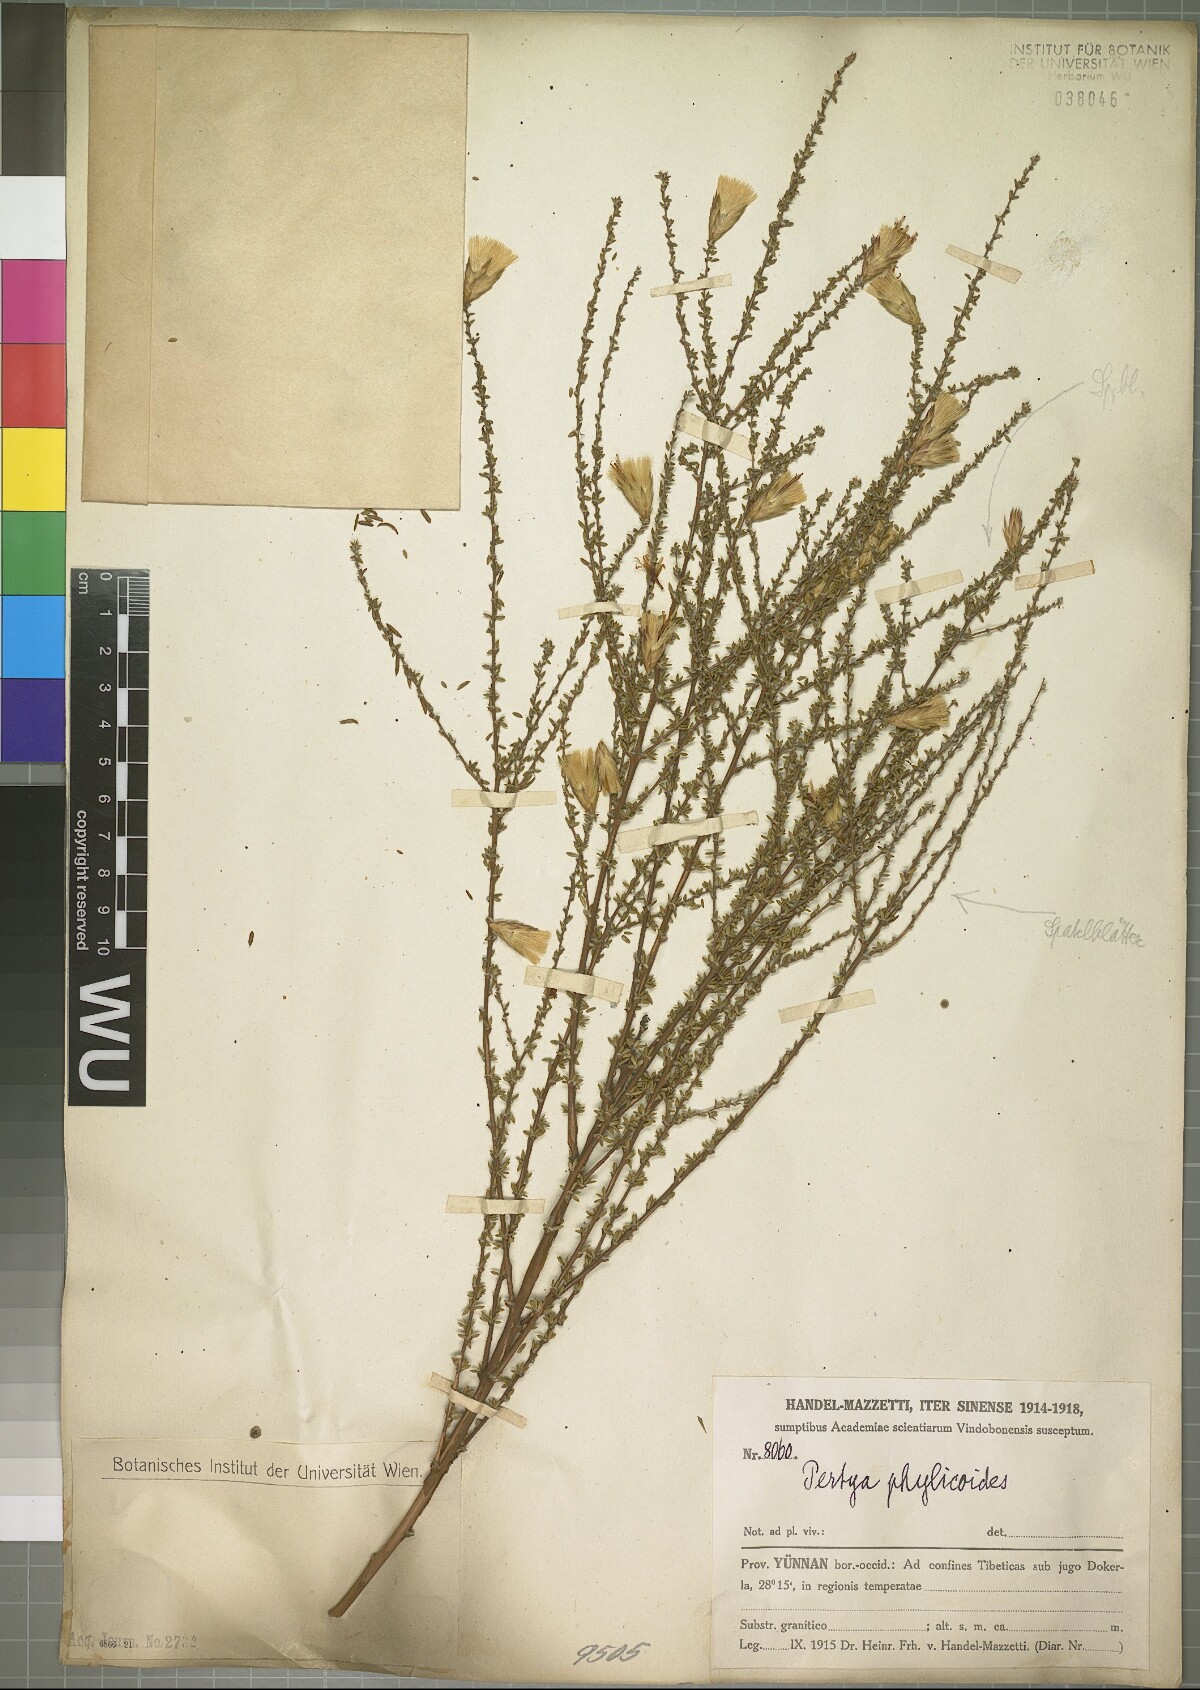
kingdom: Plantae
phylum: Tracheophyta
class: Magnoliopsida
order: Asterales
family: Asteraceae
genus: Pertya
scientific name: Pertya berberidoides
